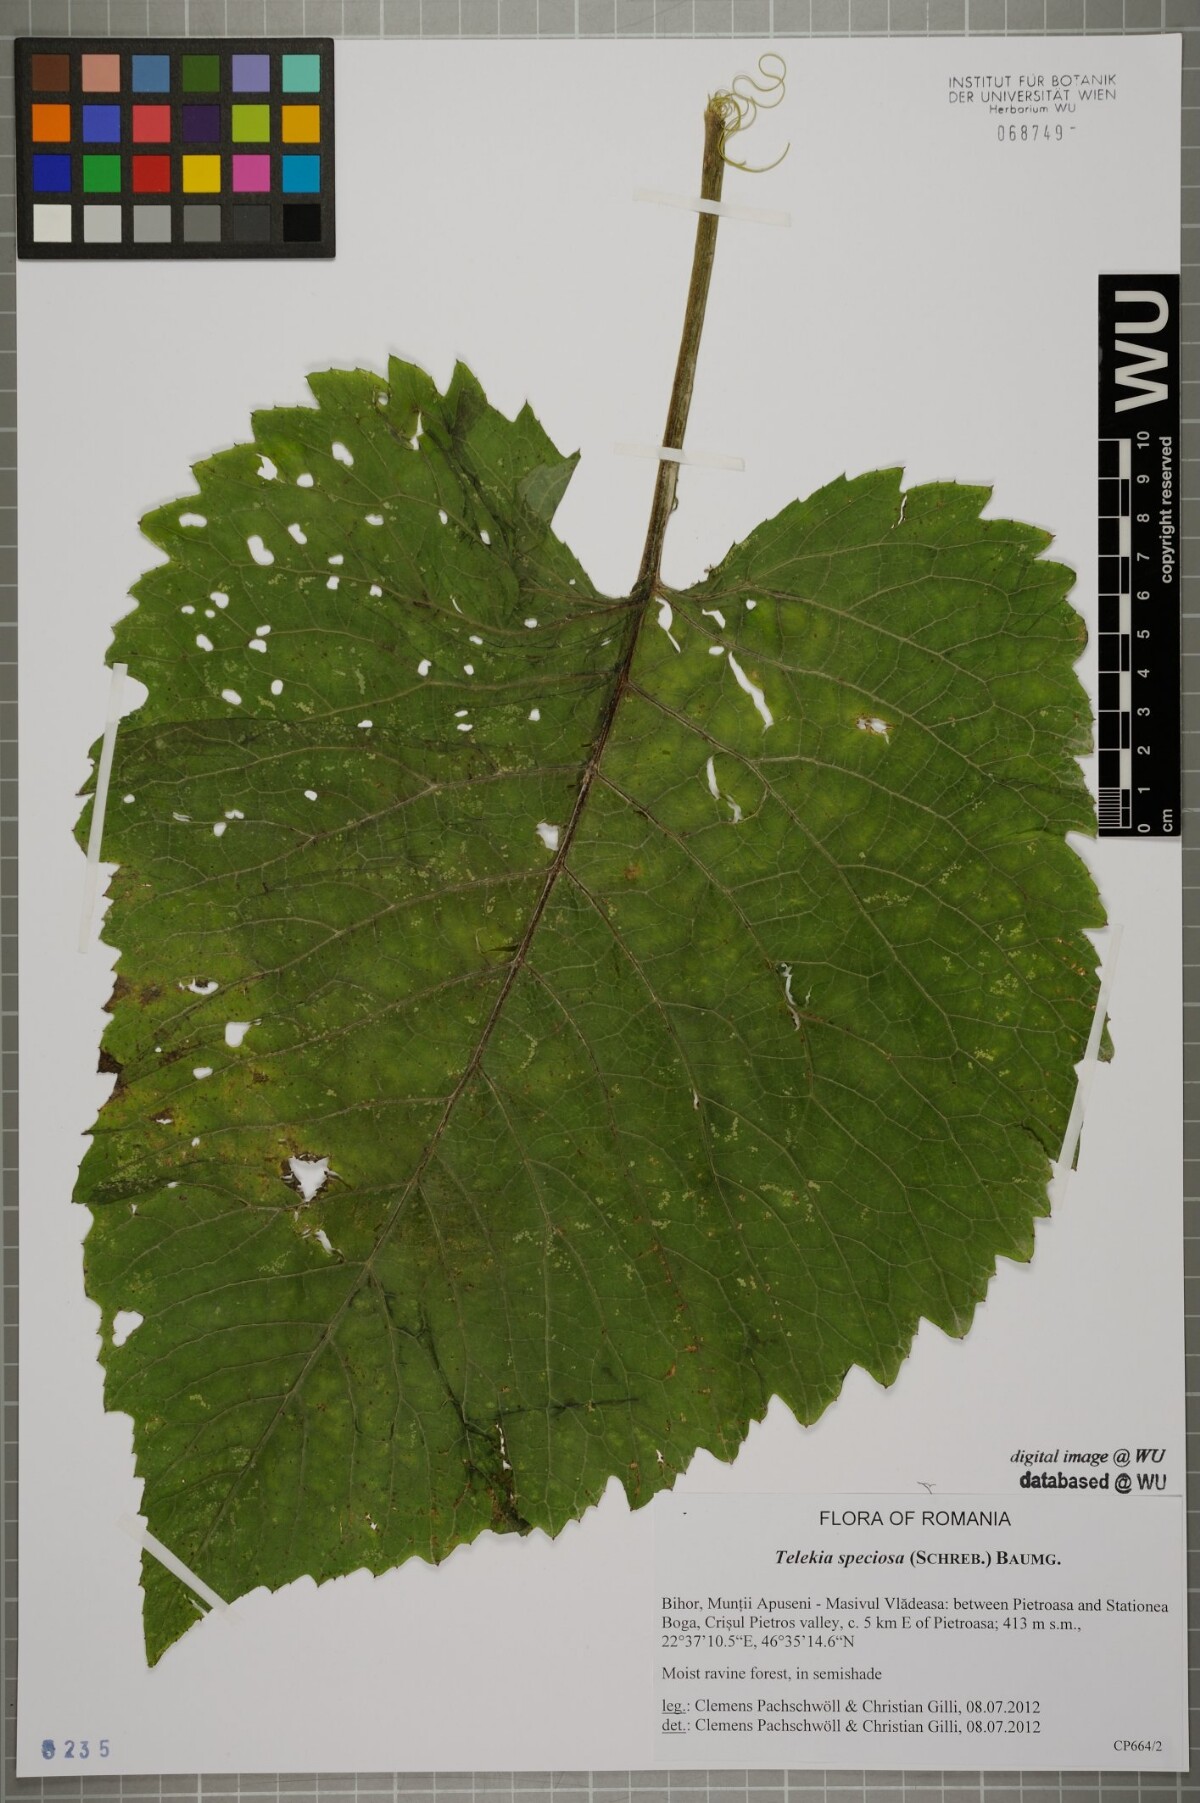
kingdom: Plantae
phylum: Tracheophyta
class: Magnoliopsida
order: Asterales
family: Asteraceae
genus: Telekia
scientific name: Telekia speciosa
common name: Yellow oxeye
